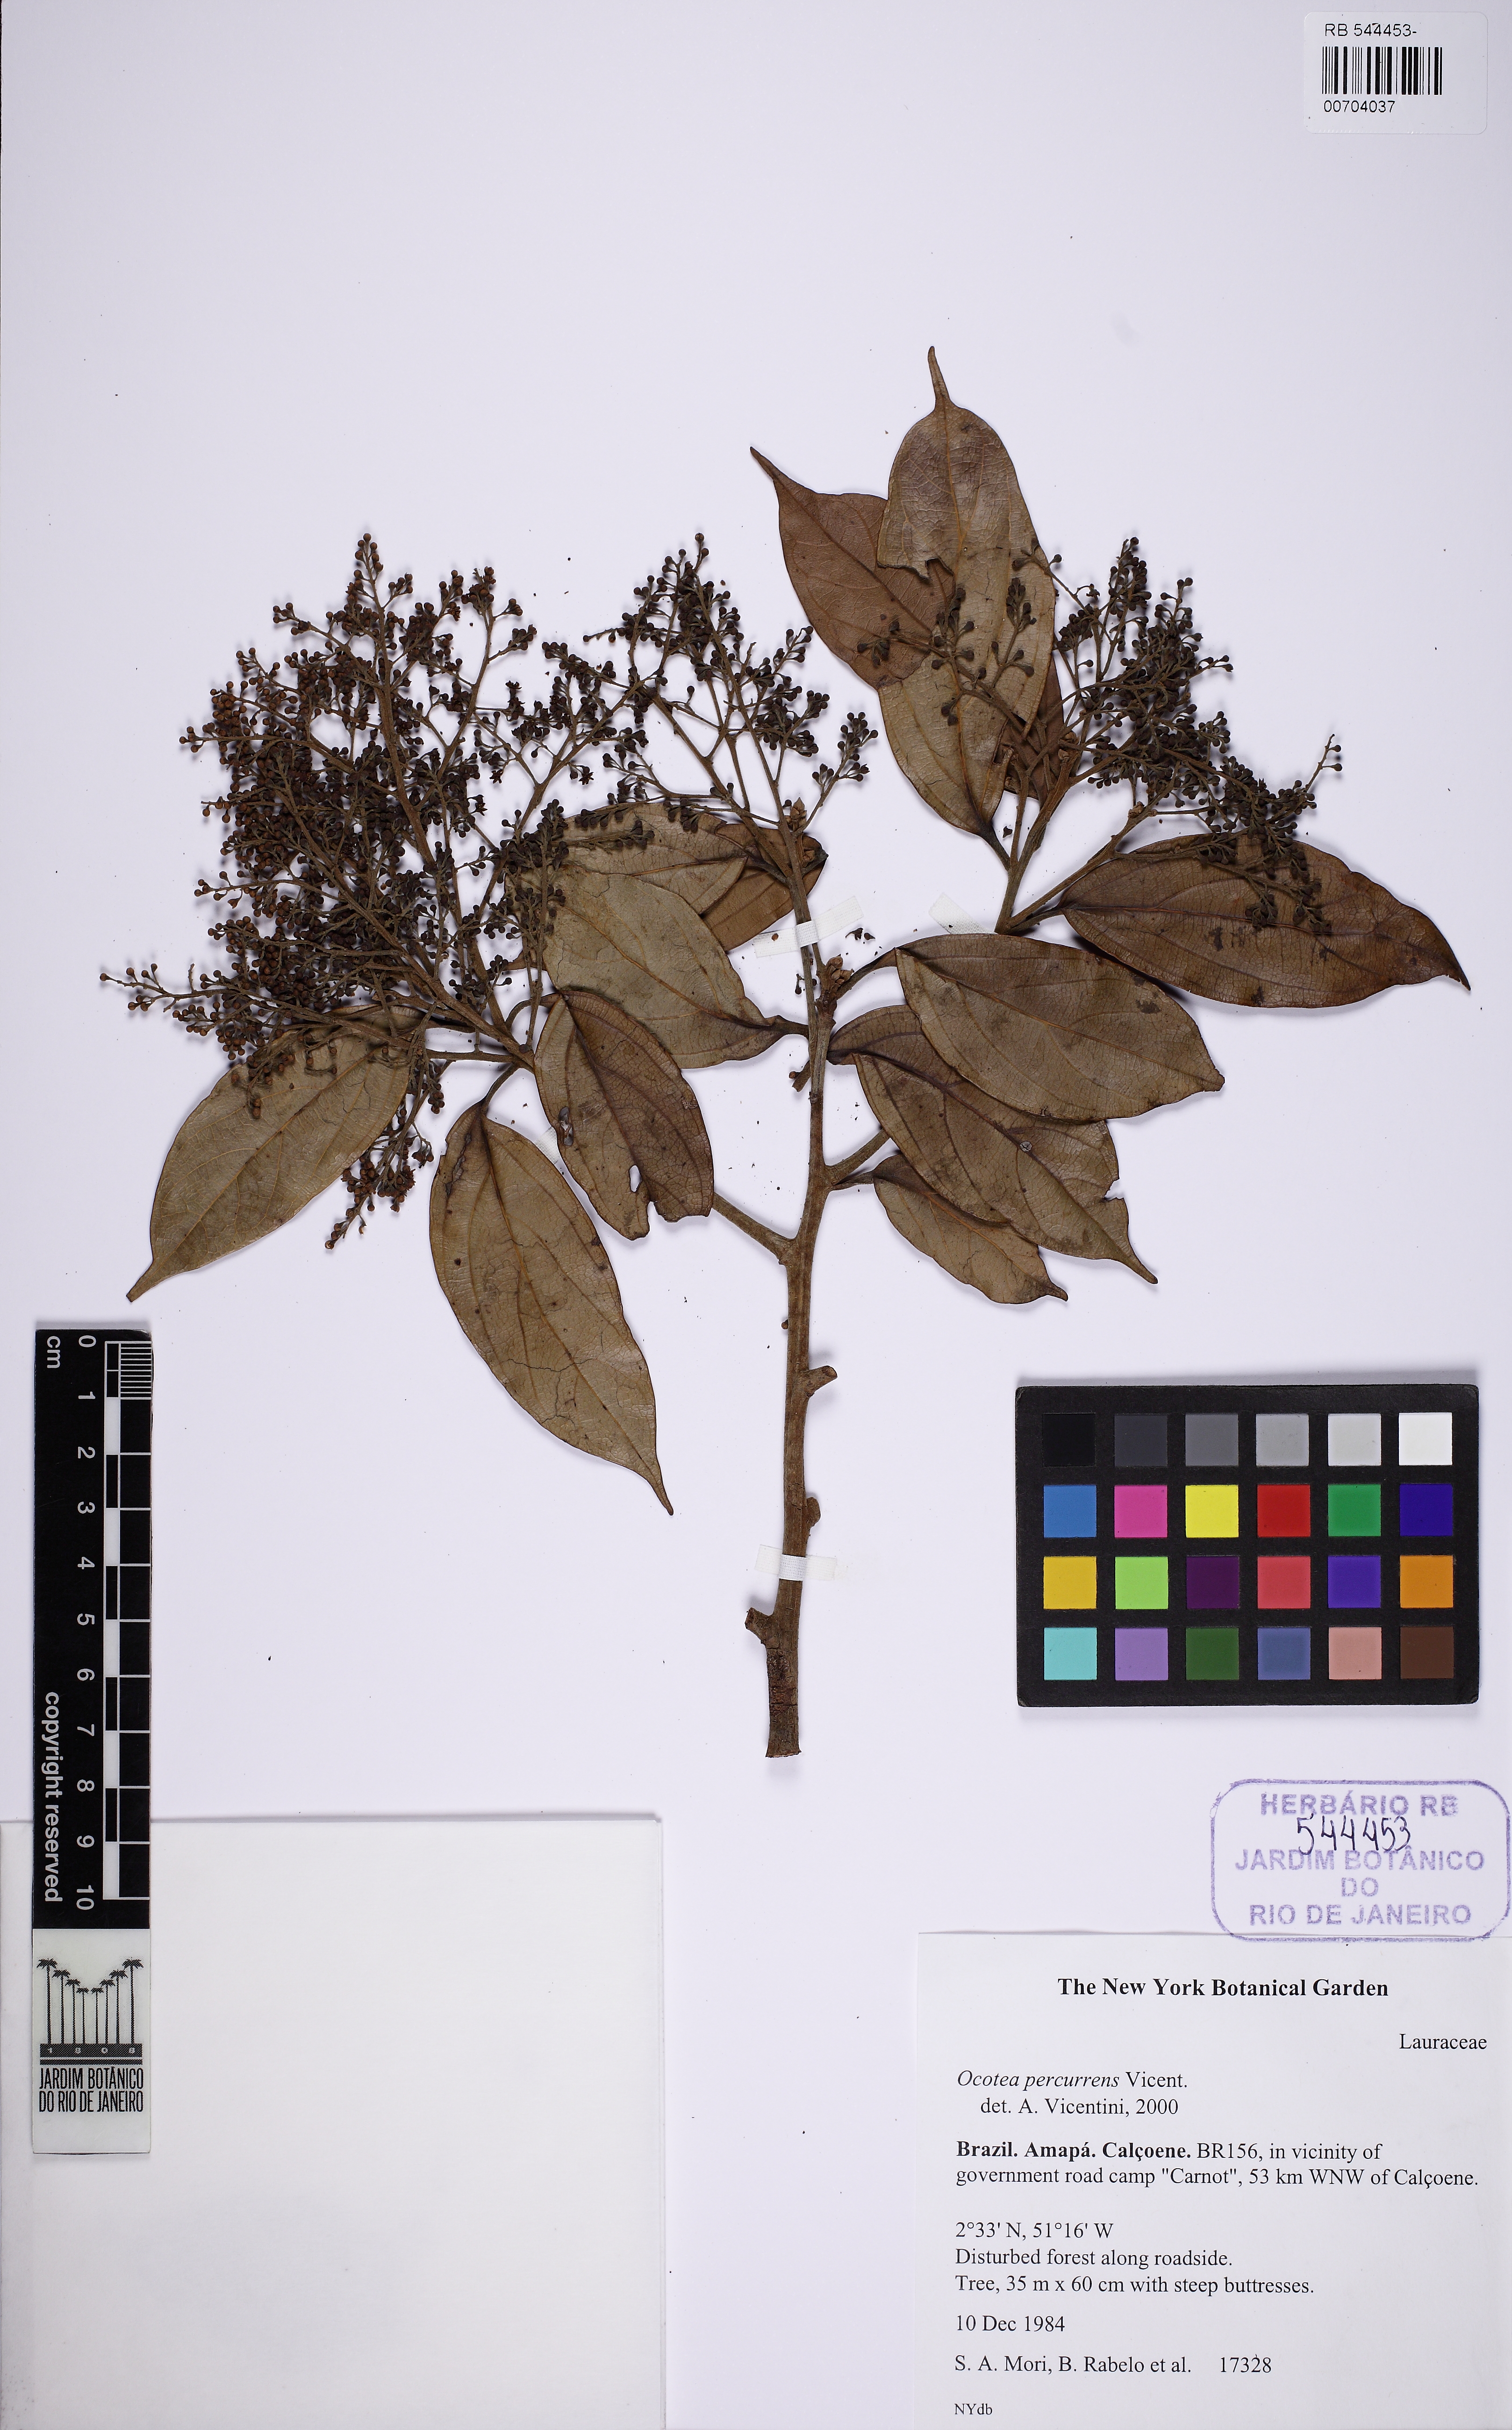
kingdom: Plantae
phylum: Tracheophyta
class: Magnoliopsida
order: Laurales
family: Lauraceae
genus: Ocotea
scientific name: Ocotea percurrens
